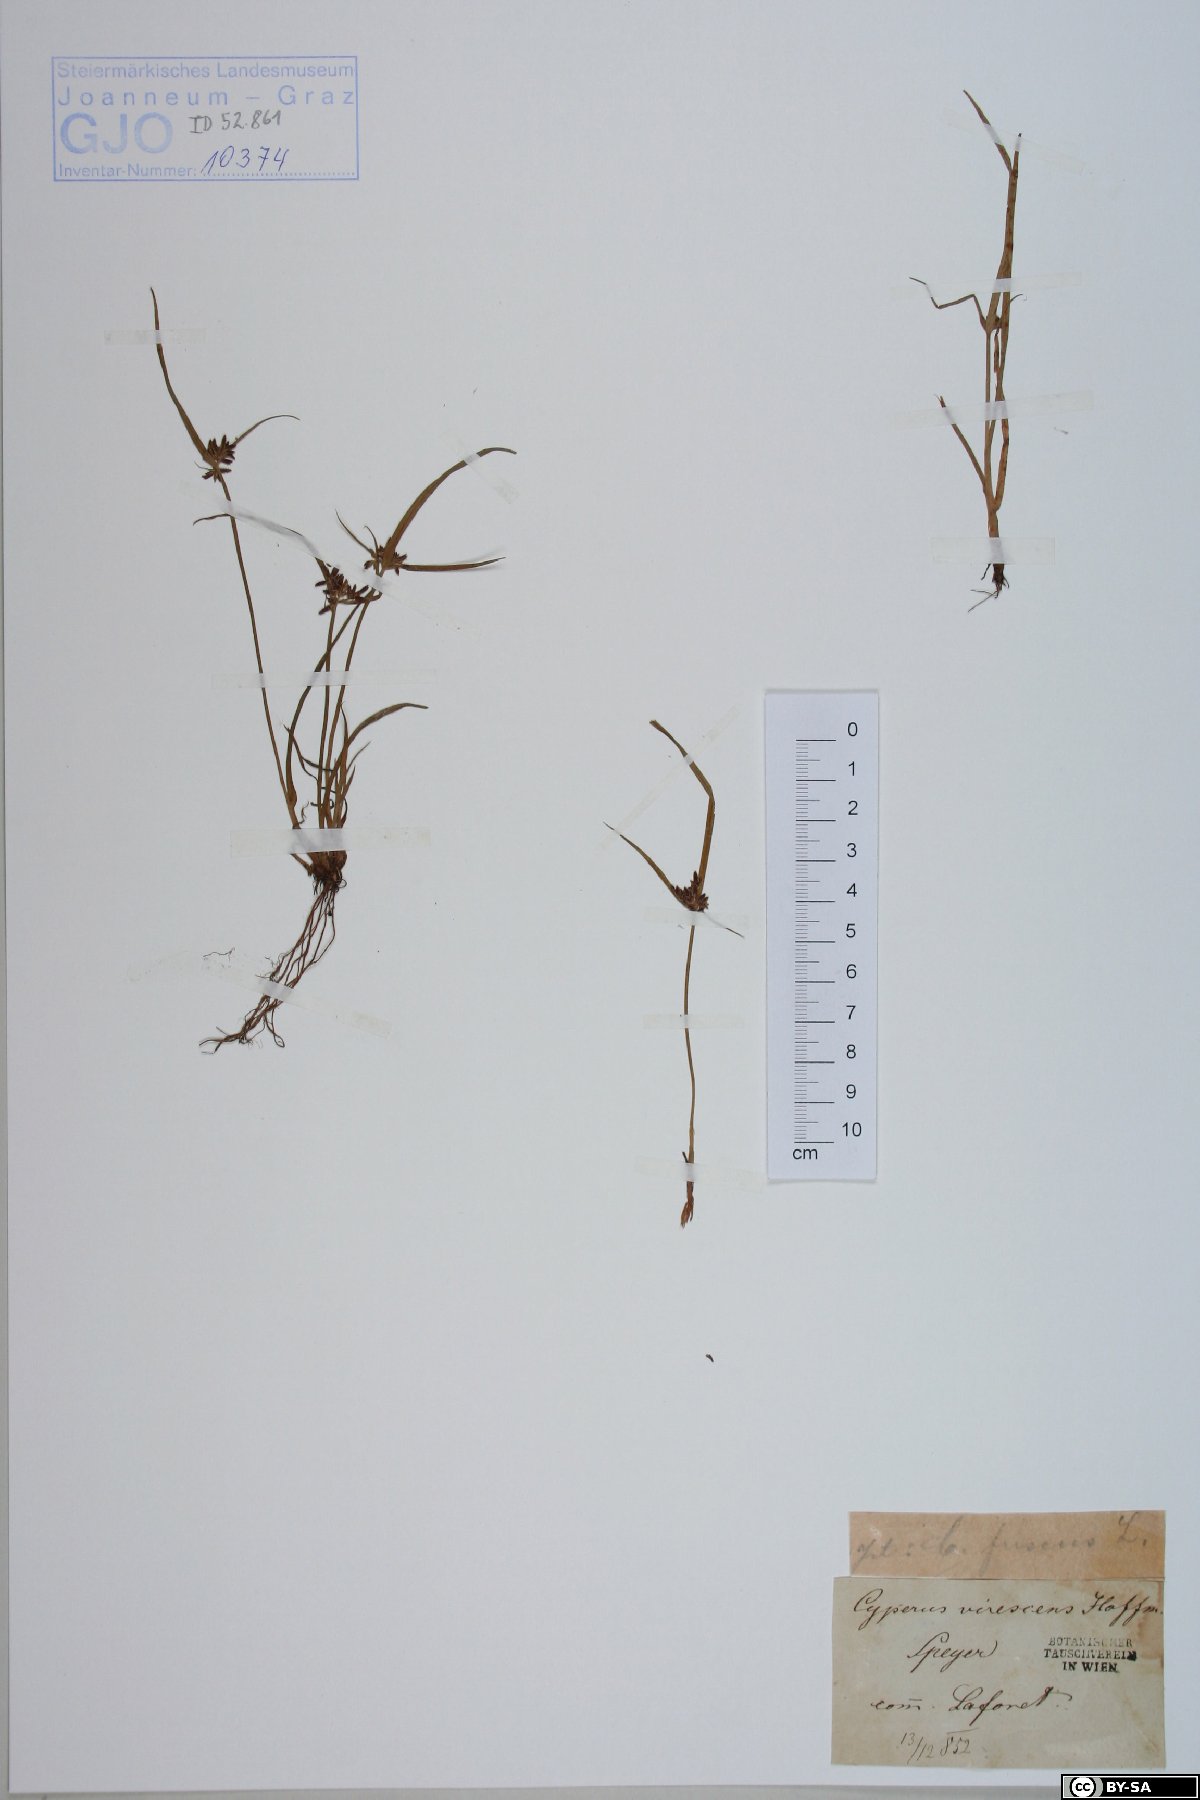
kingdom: Plantae
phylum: Tracheophyta
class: Liliopsida
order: Poales
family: Cyperaceae
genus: Cyperus
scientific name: Cyperus fuscus
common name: Brown galingale
